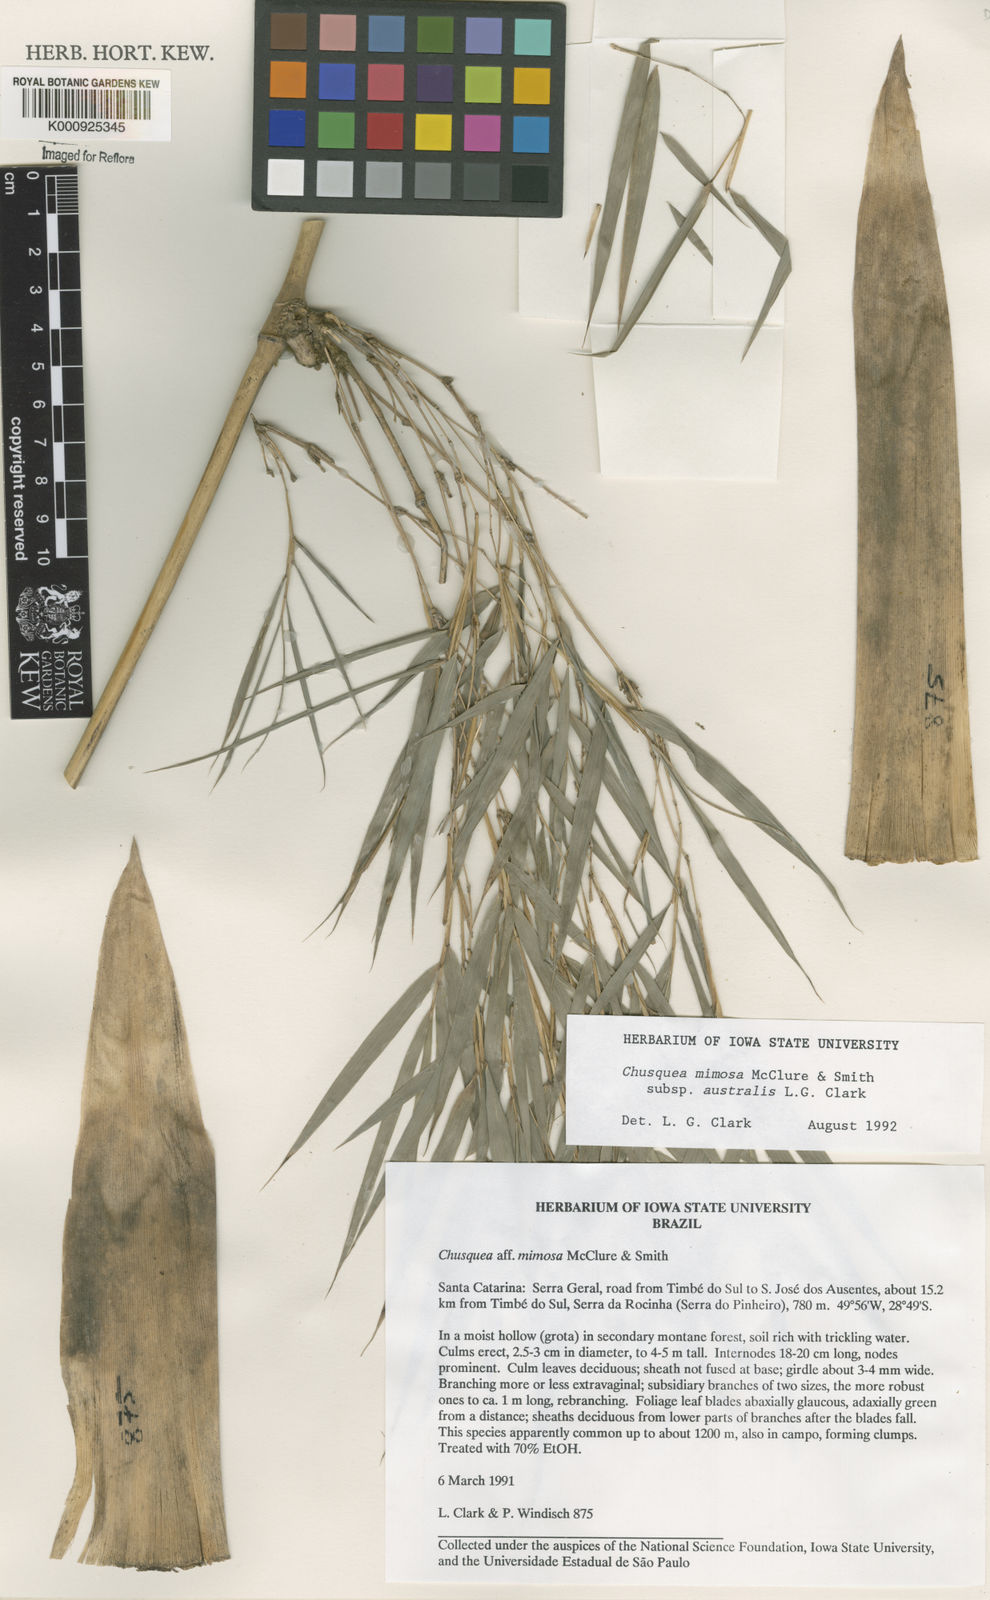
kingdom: Plantae
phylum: Tracheophyta
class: Liliopsida
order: Poales
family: Poaceae
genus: Chusquea
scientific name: Chusquea mimosa
